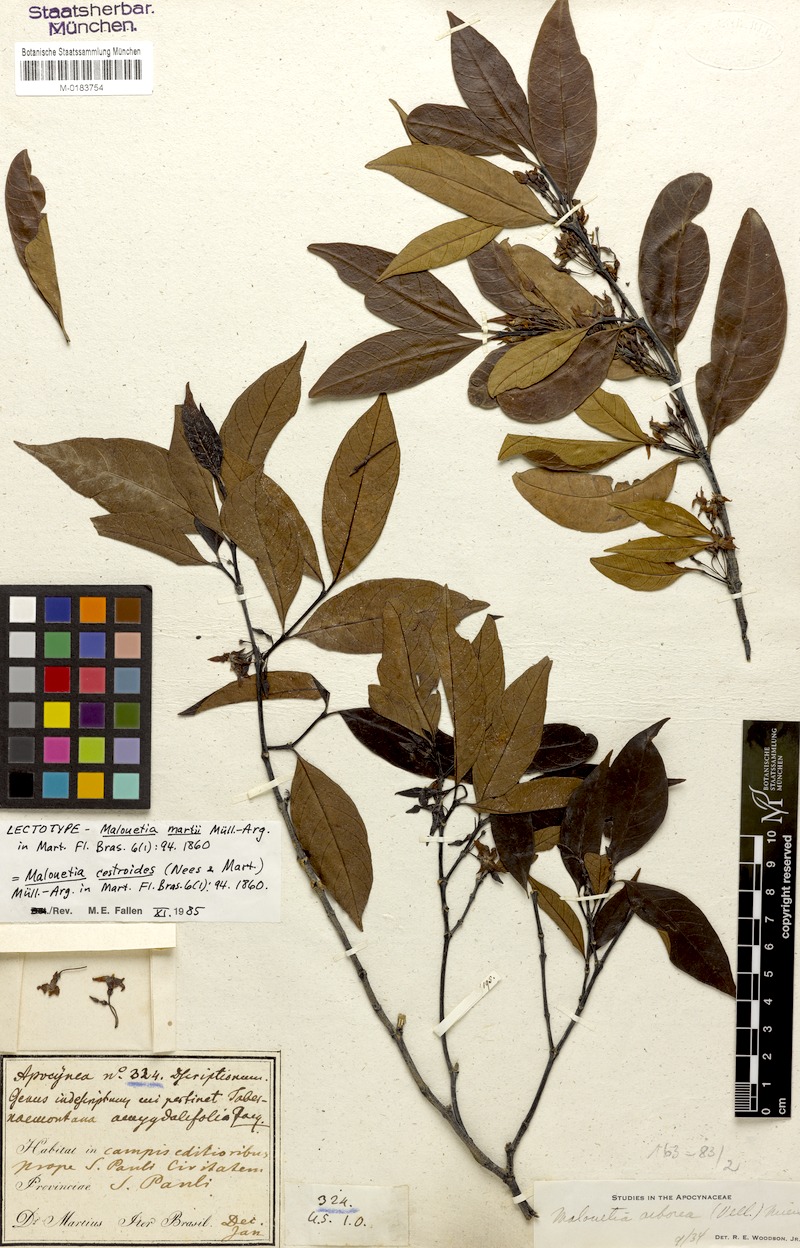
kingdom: Plantae
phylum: Tracheophyta
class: Magnoliopsida
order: Gentianales
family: Apocynaceae
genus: Malouetia
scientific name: Malouetia cestroides
